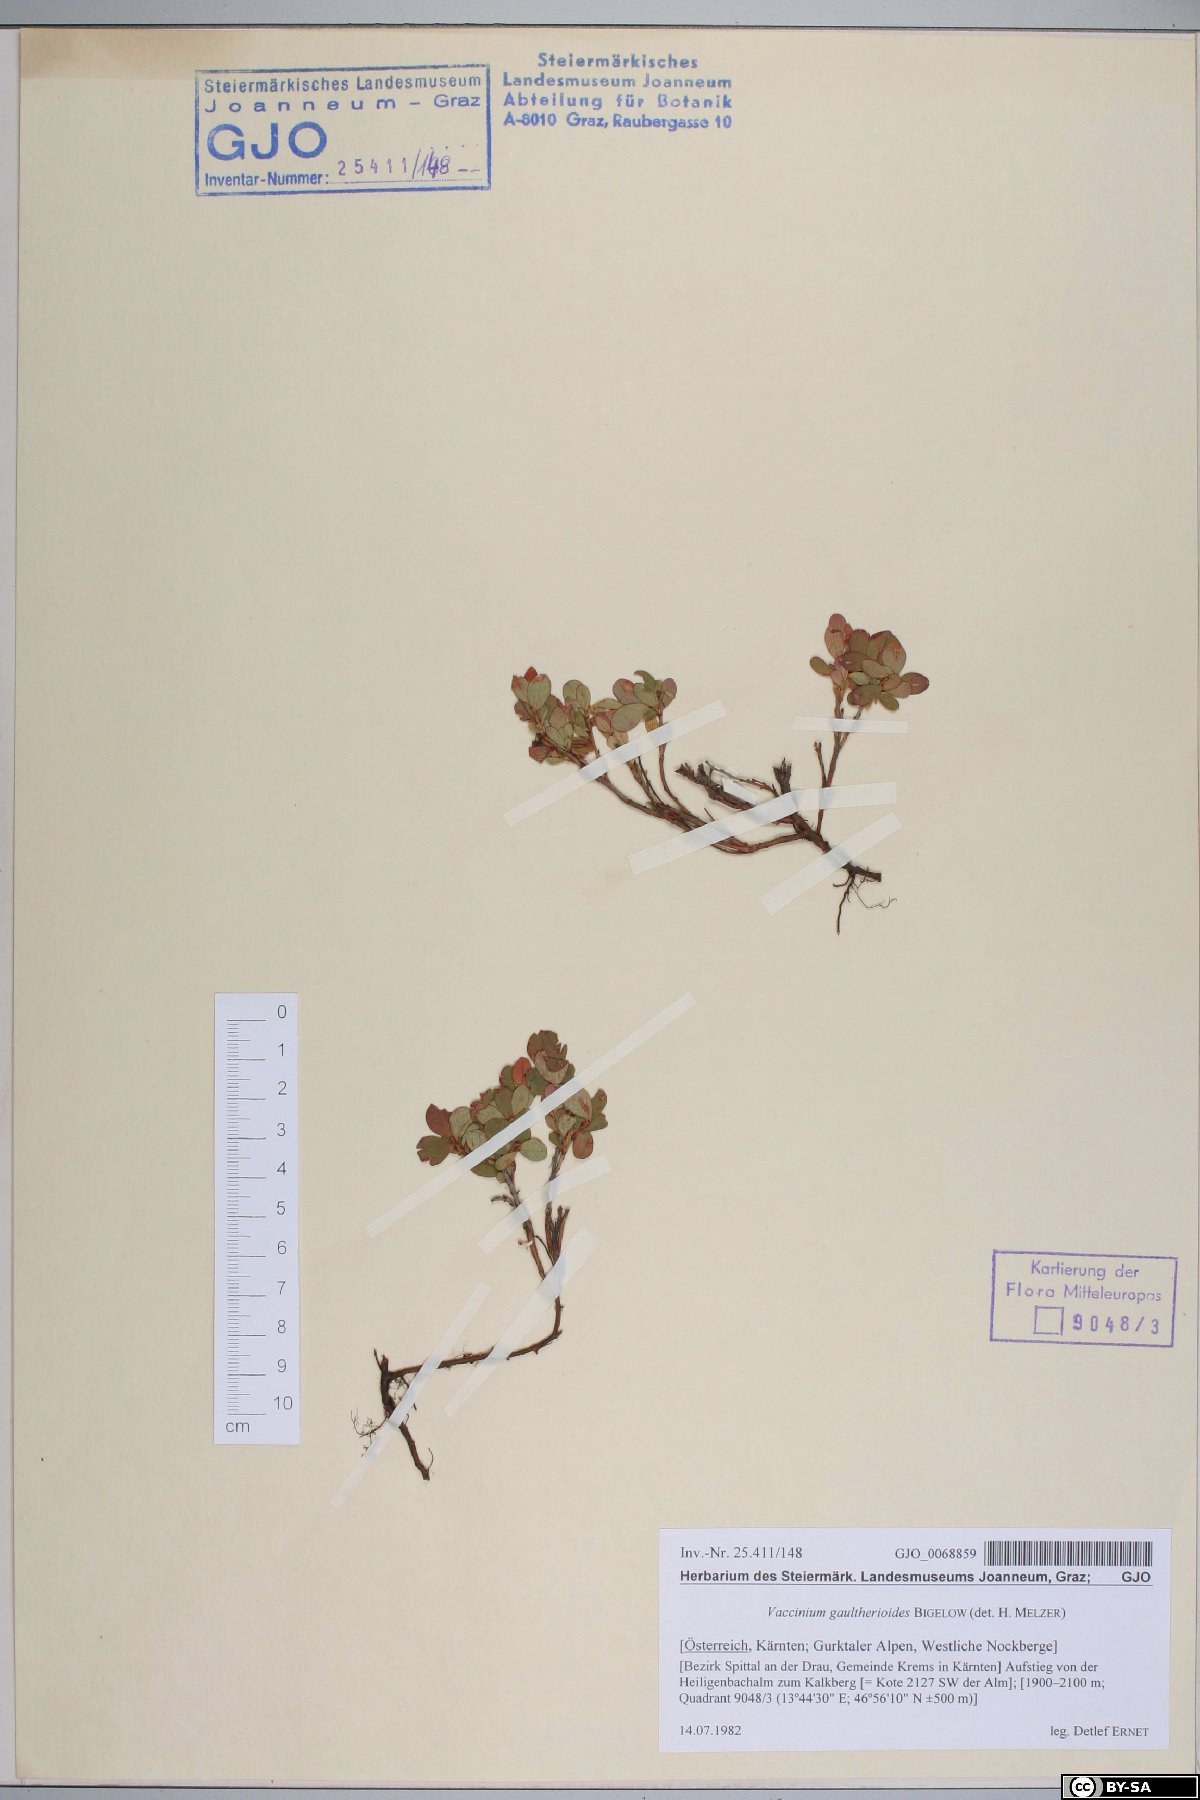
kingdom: Plantae
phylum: Tracheophyta
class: Magnoliopsida
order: Ericales
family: Ericaceae
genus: Vaccinium
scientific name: Vaccinium gaultherioides
